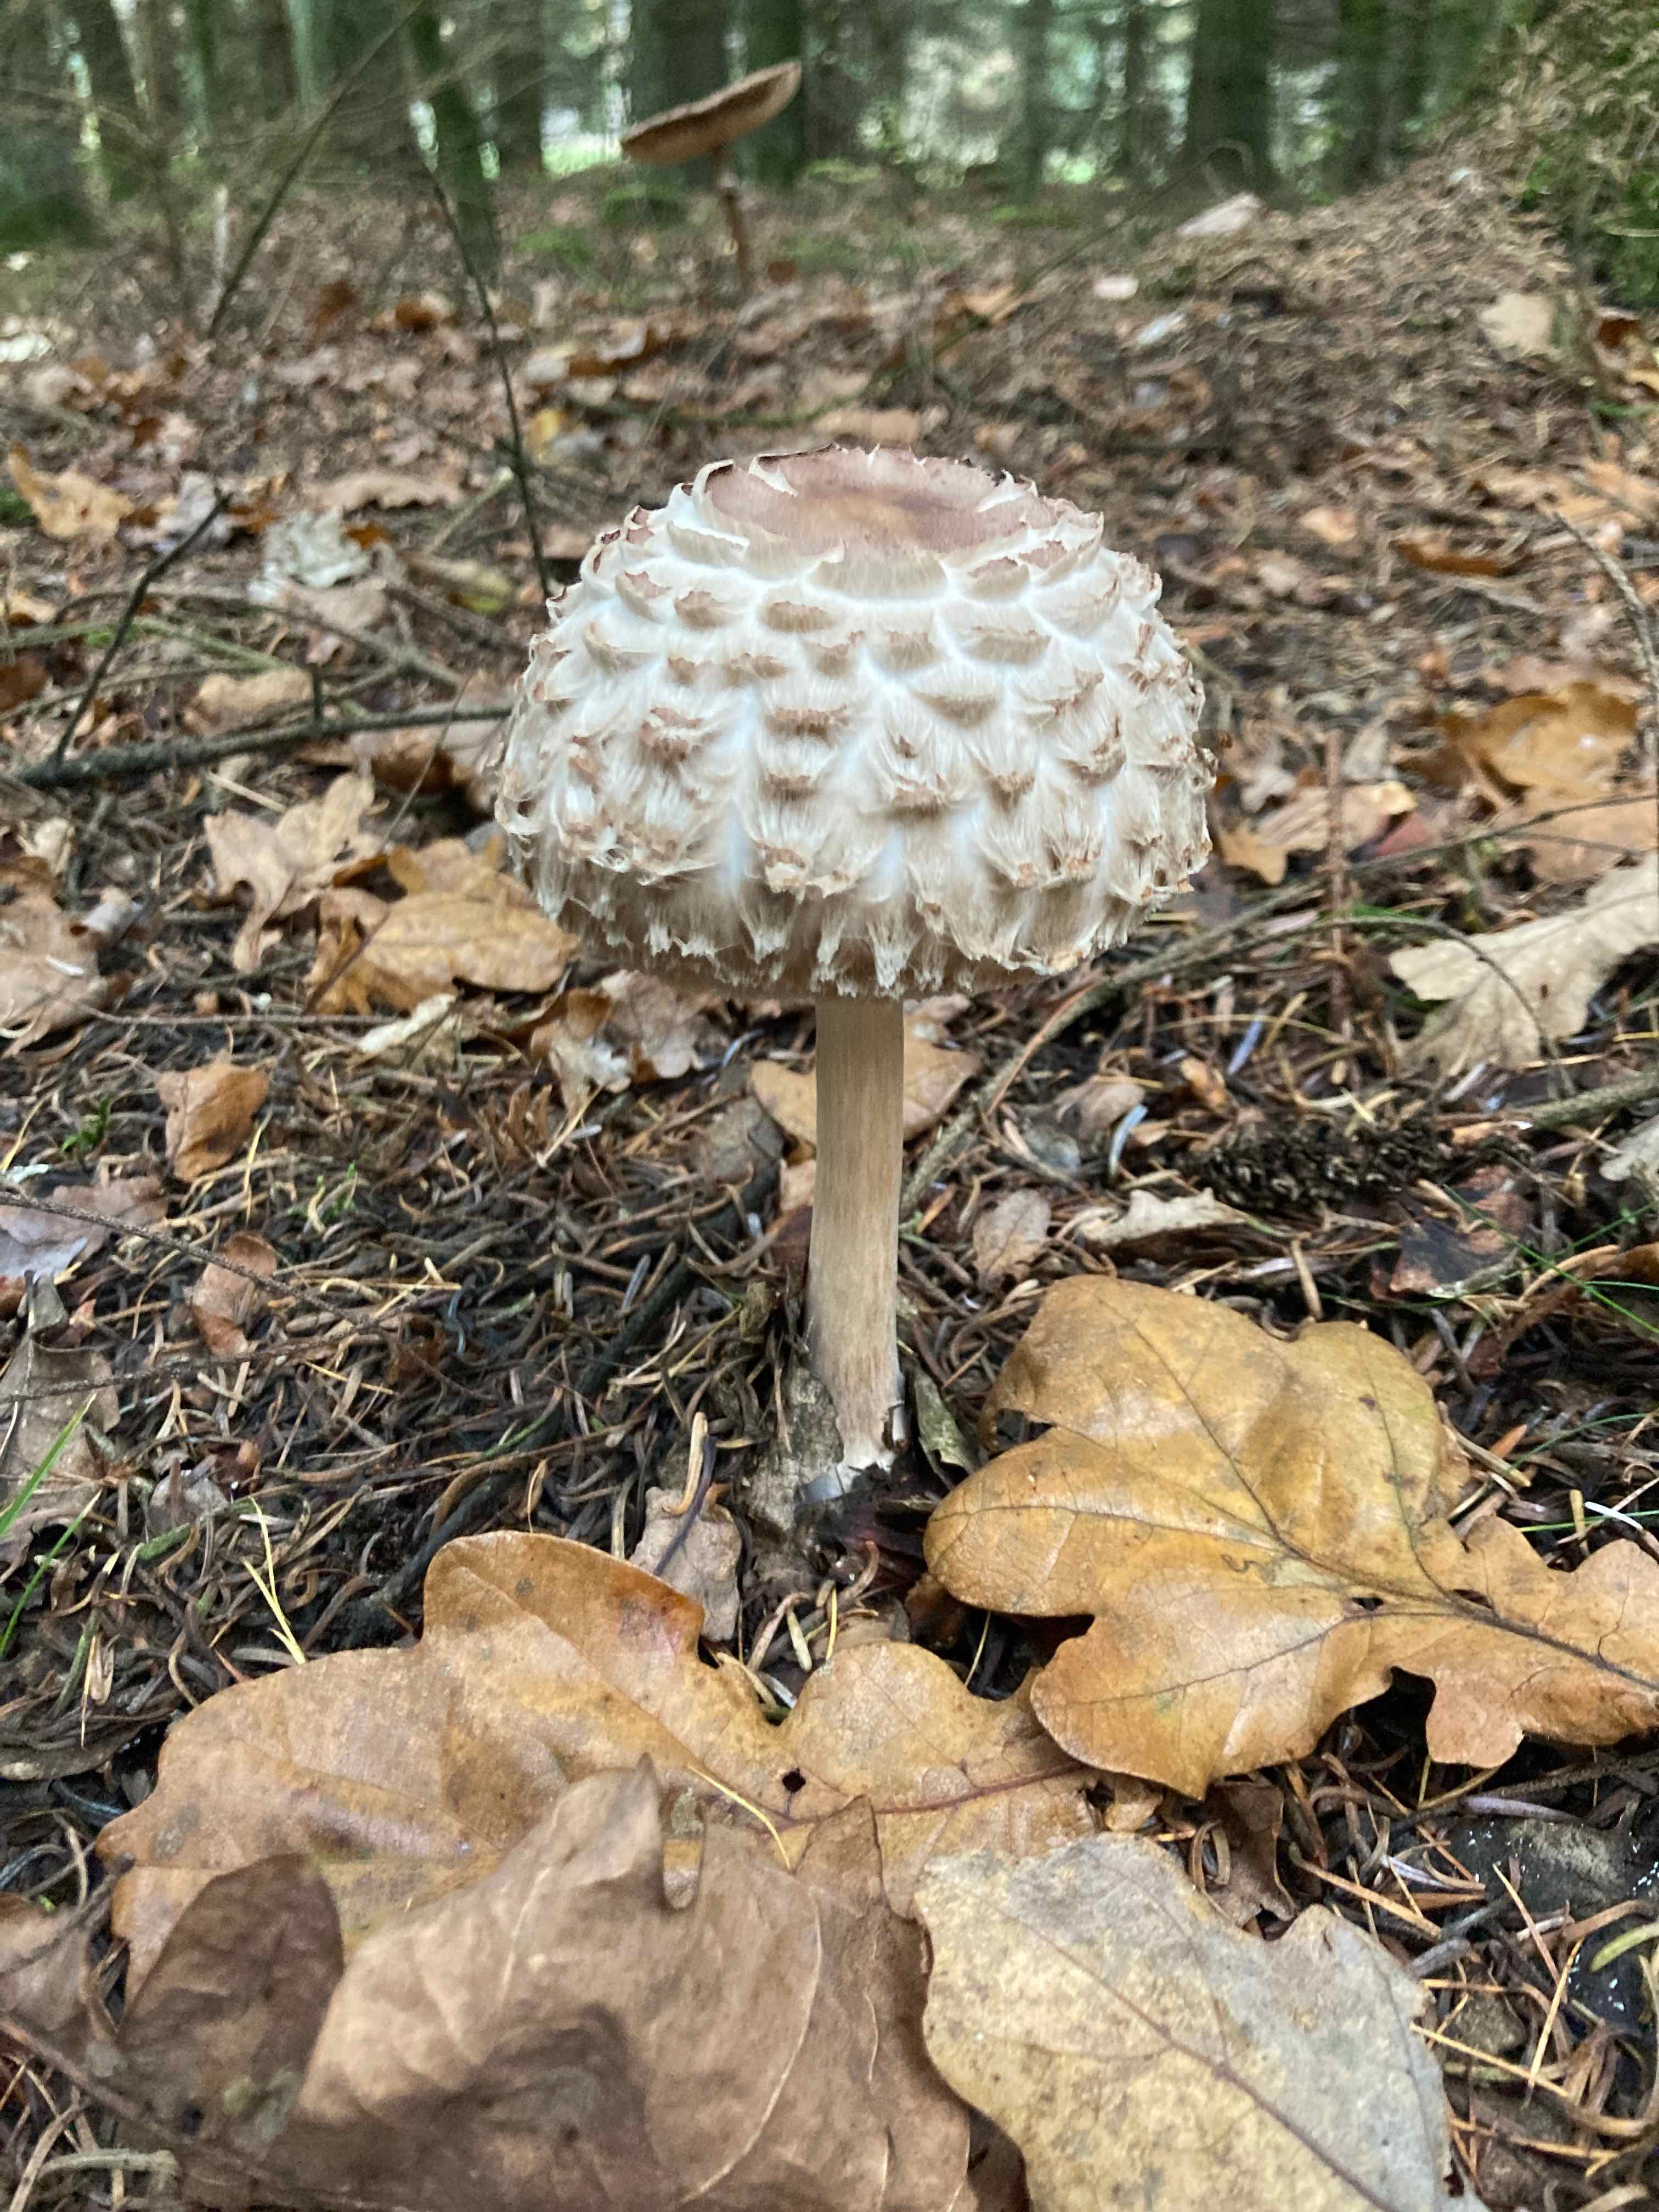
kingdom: Fungi
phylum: Basidiomycota
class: Agaricomycetes
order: Agaricales
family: Agaricaceae
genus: Chlorophyllum
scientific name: Chlorophyllum
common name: rabarberhat
